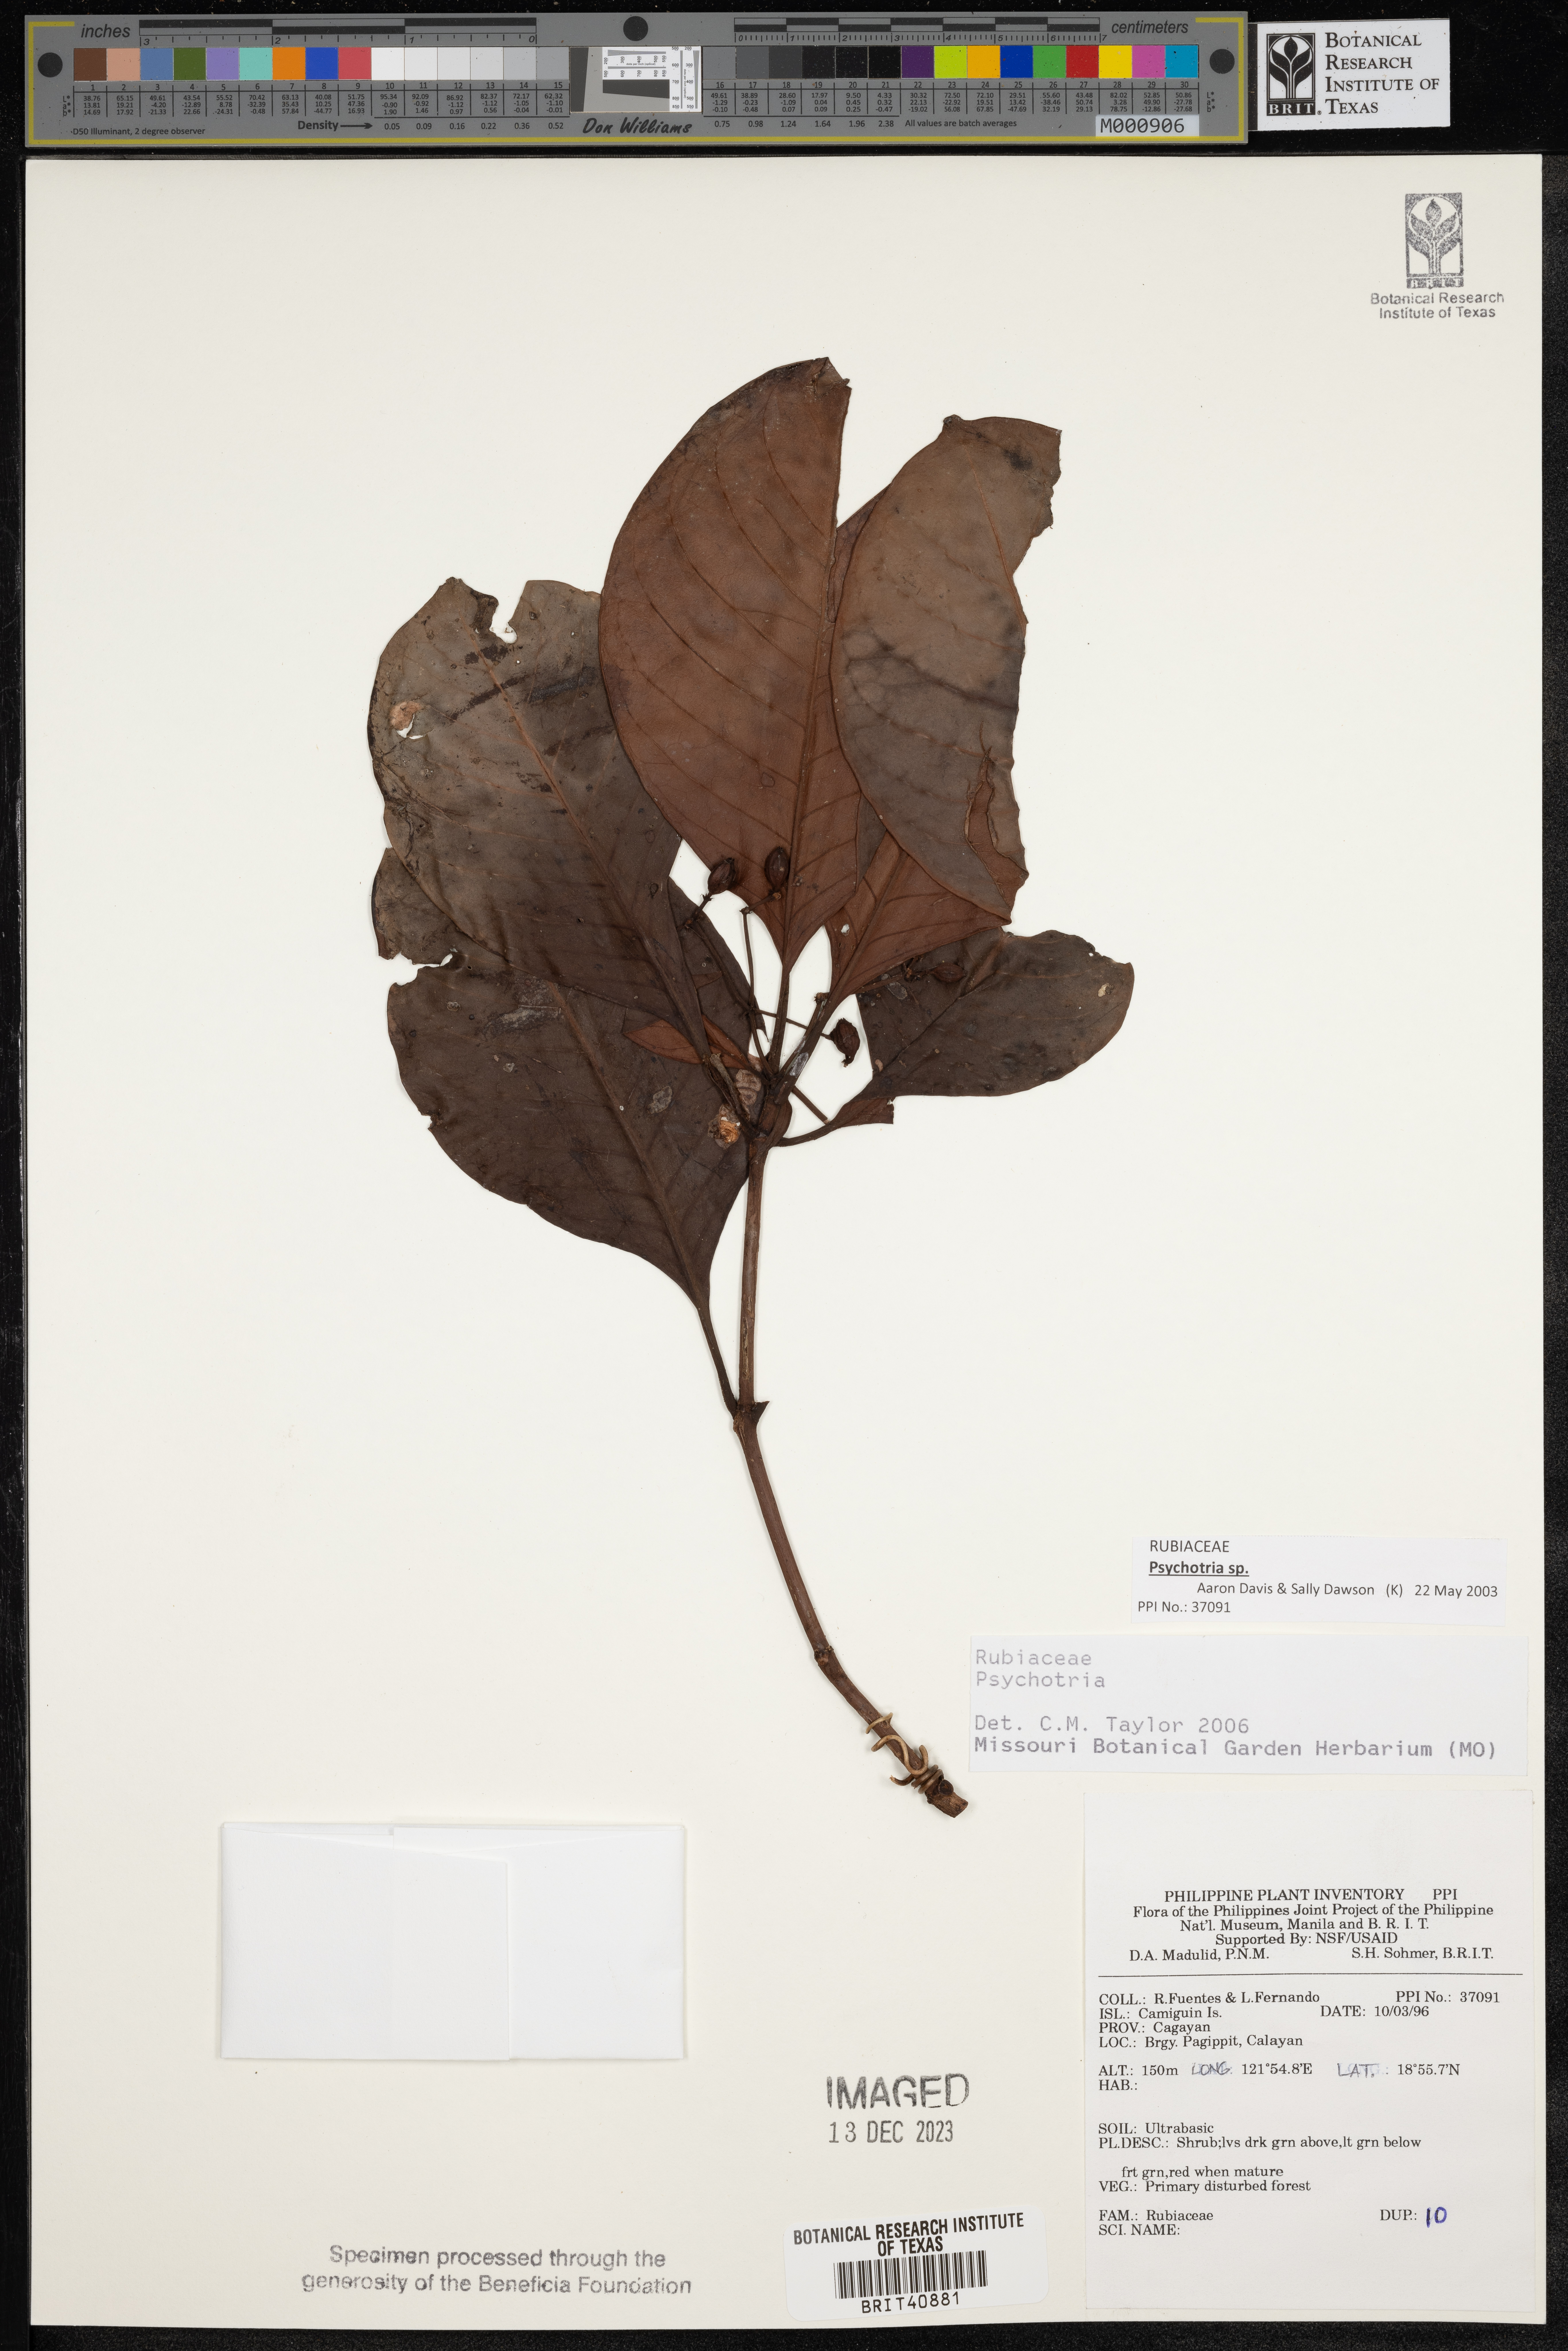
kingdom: Plantae
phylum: Tracheophyta
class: Magnoliopsida
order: Gentianales
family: Rubiaceae
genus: Psychotria
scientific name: Psychotria
